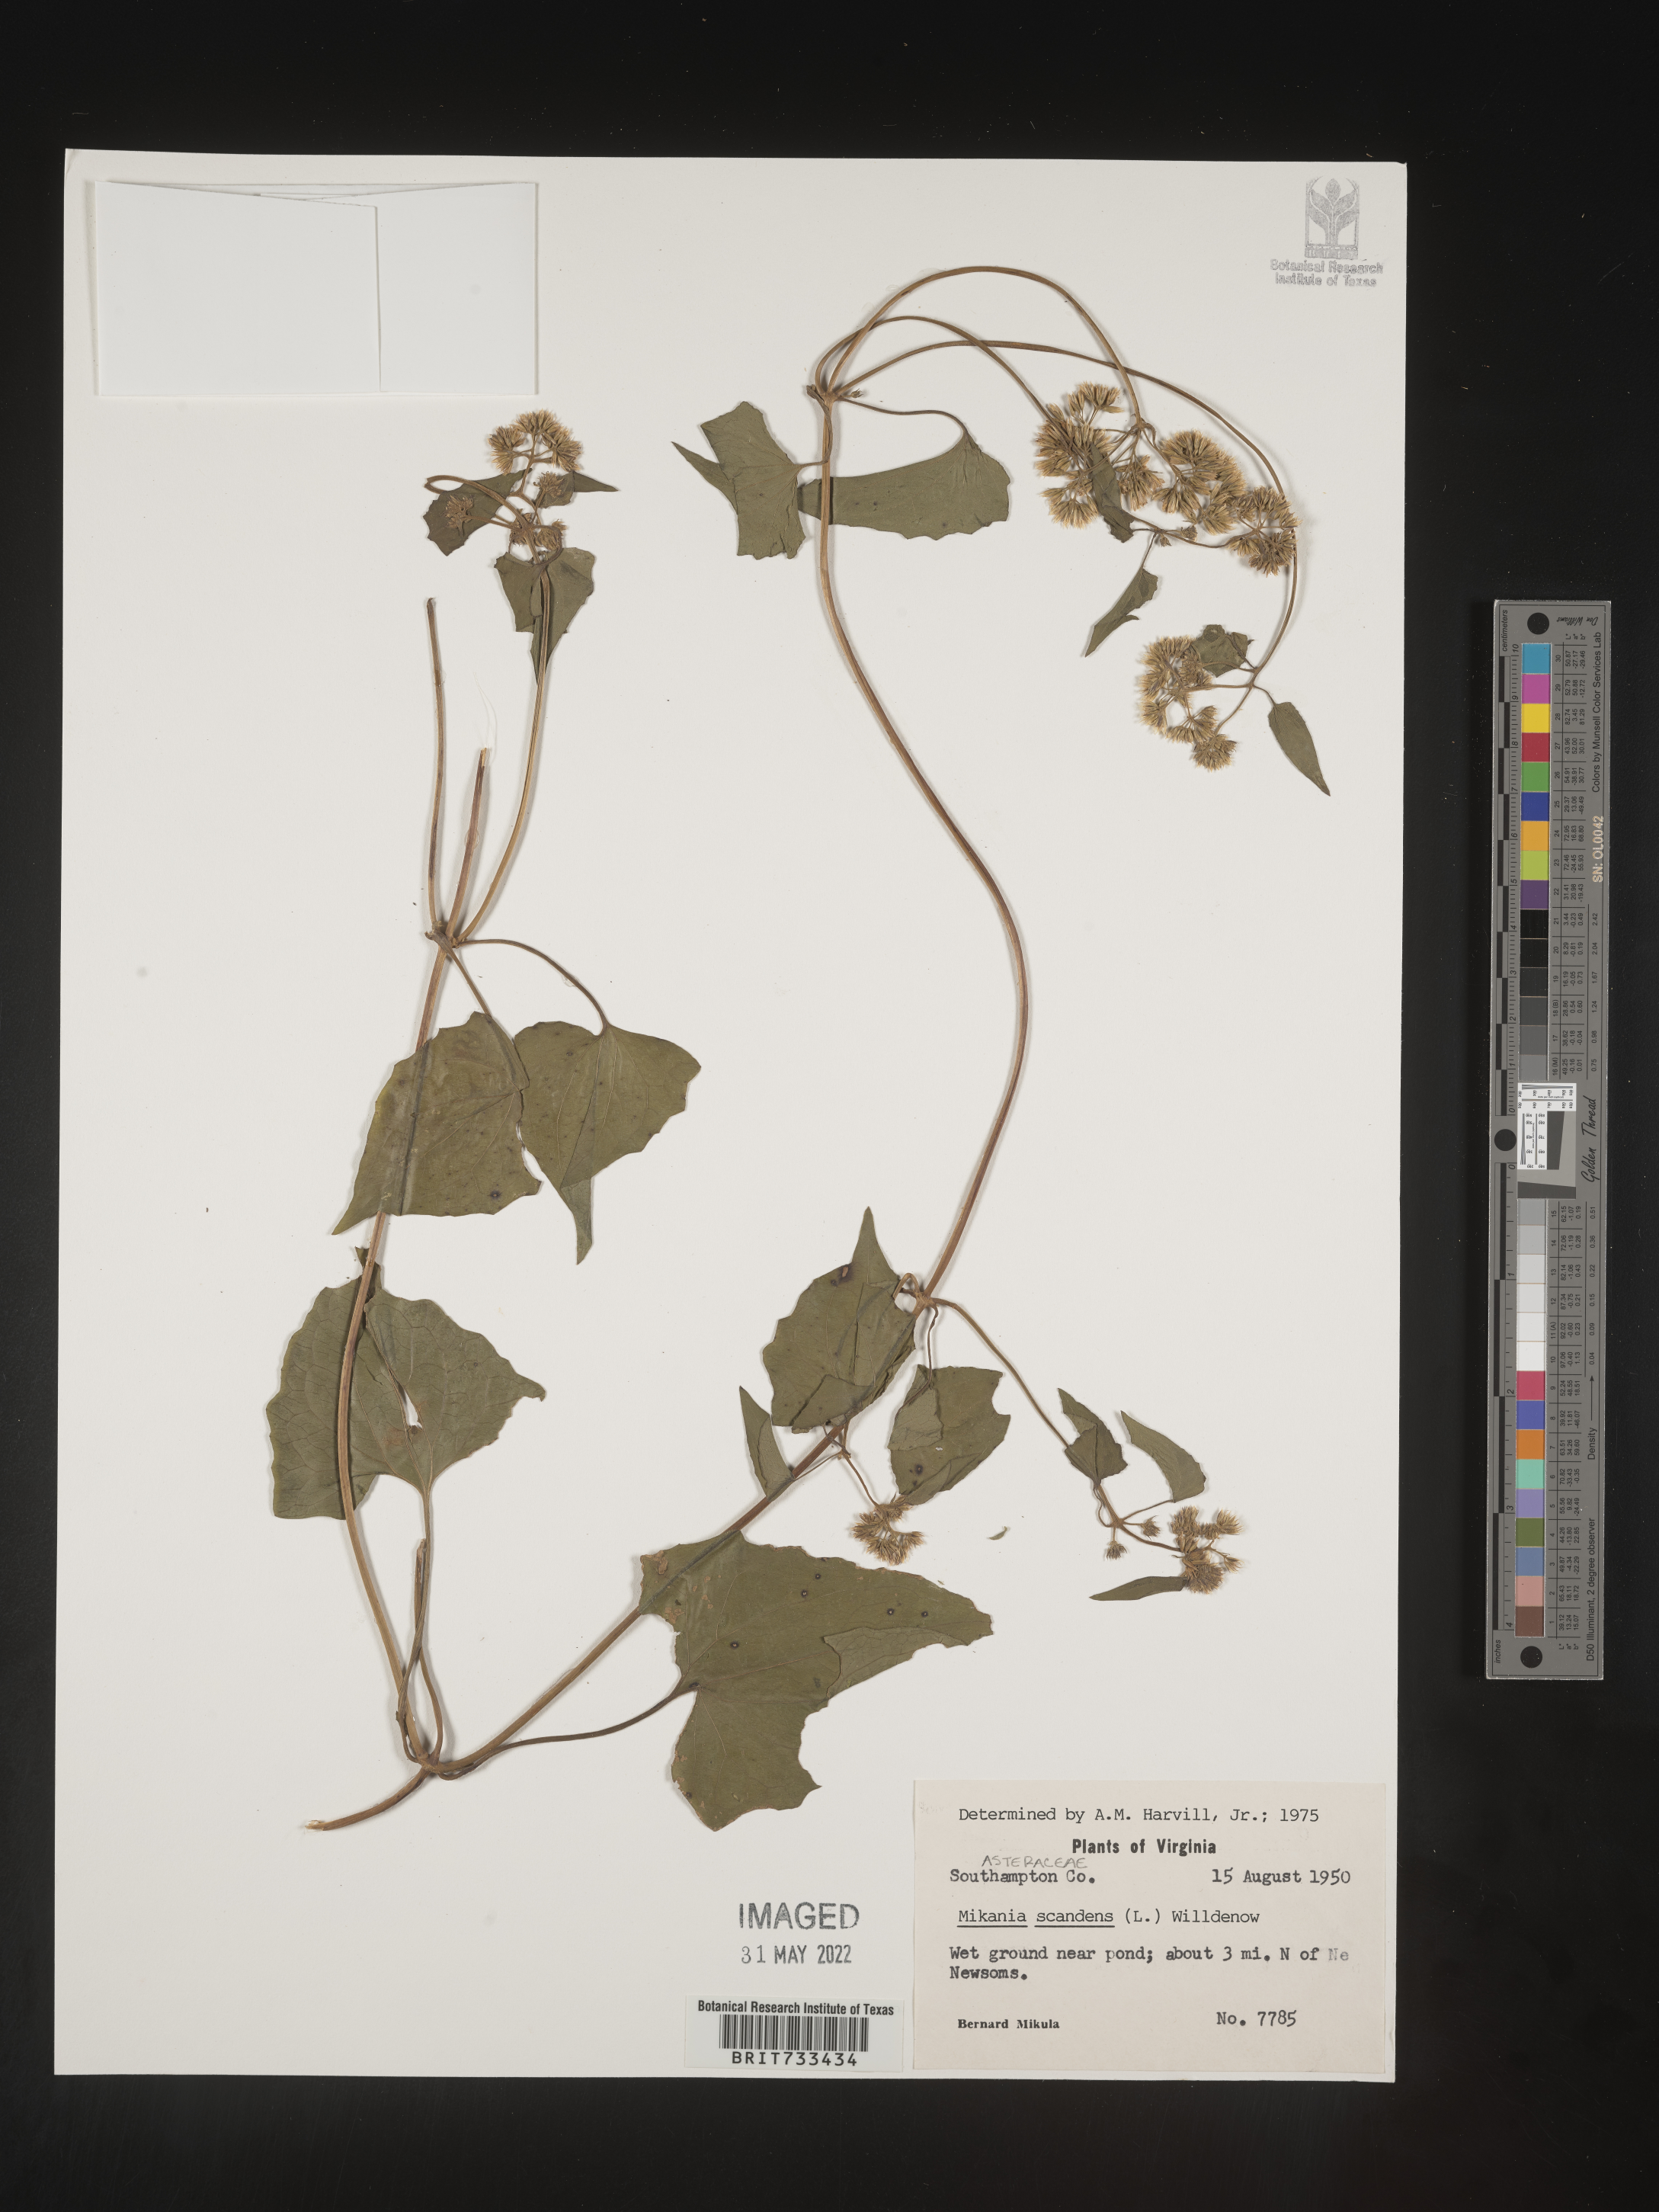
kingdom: Plantae
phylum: Tracheophyta
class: Magnoliopsida
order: Asterales
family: Asteraceae
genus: Mikania
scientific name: Mikania scandens
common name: Climbing hempvine
